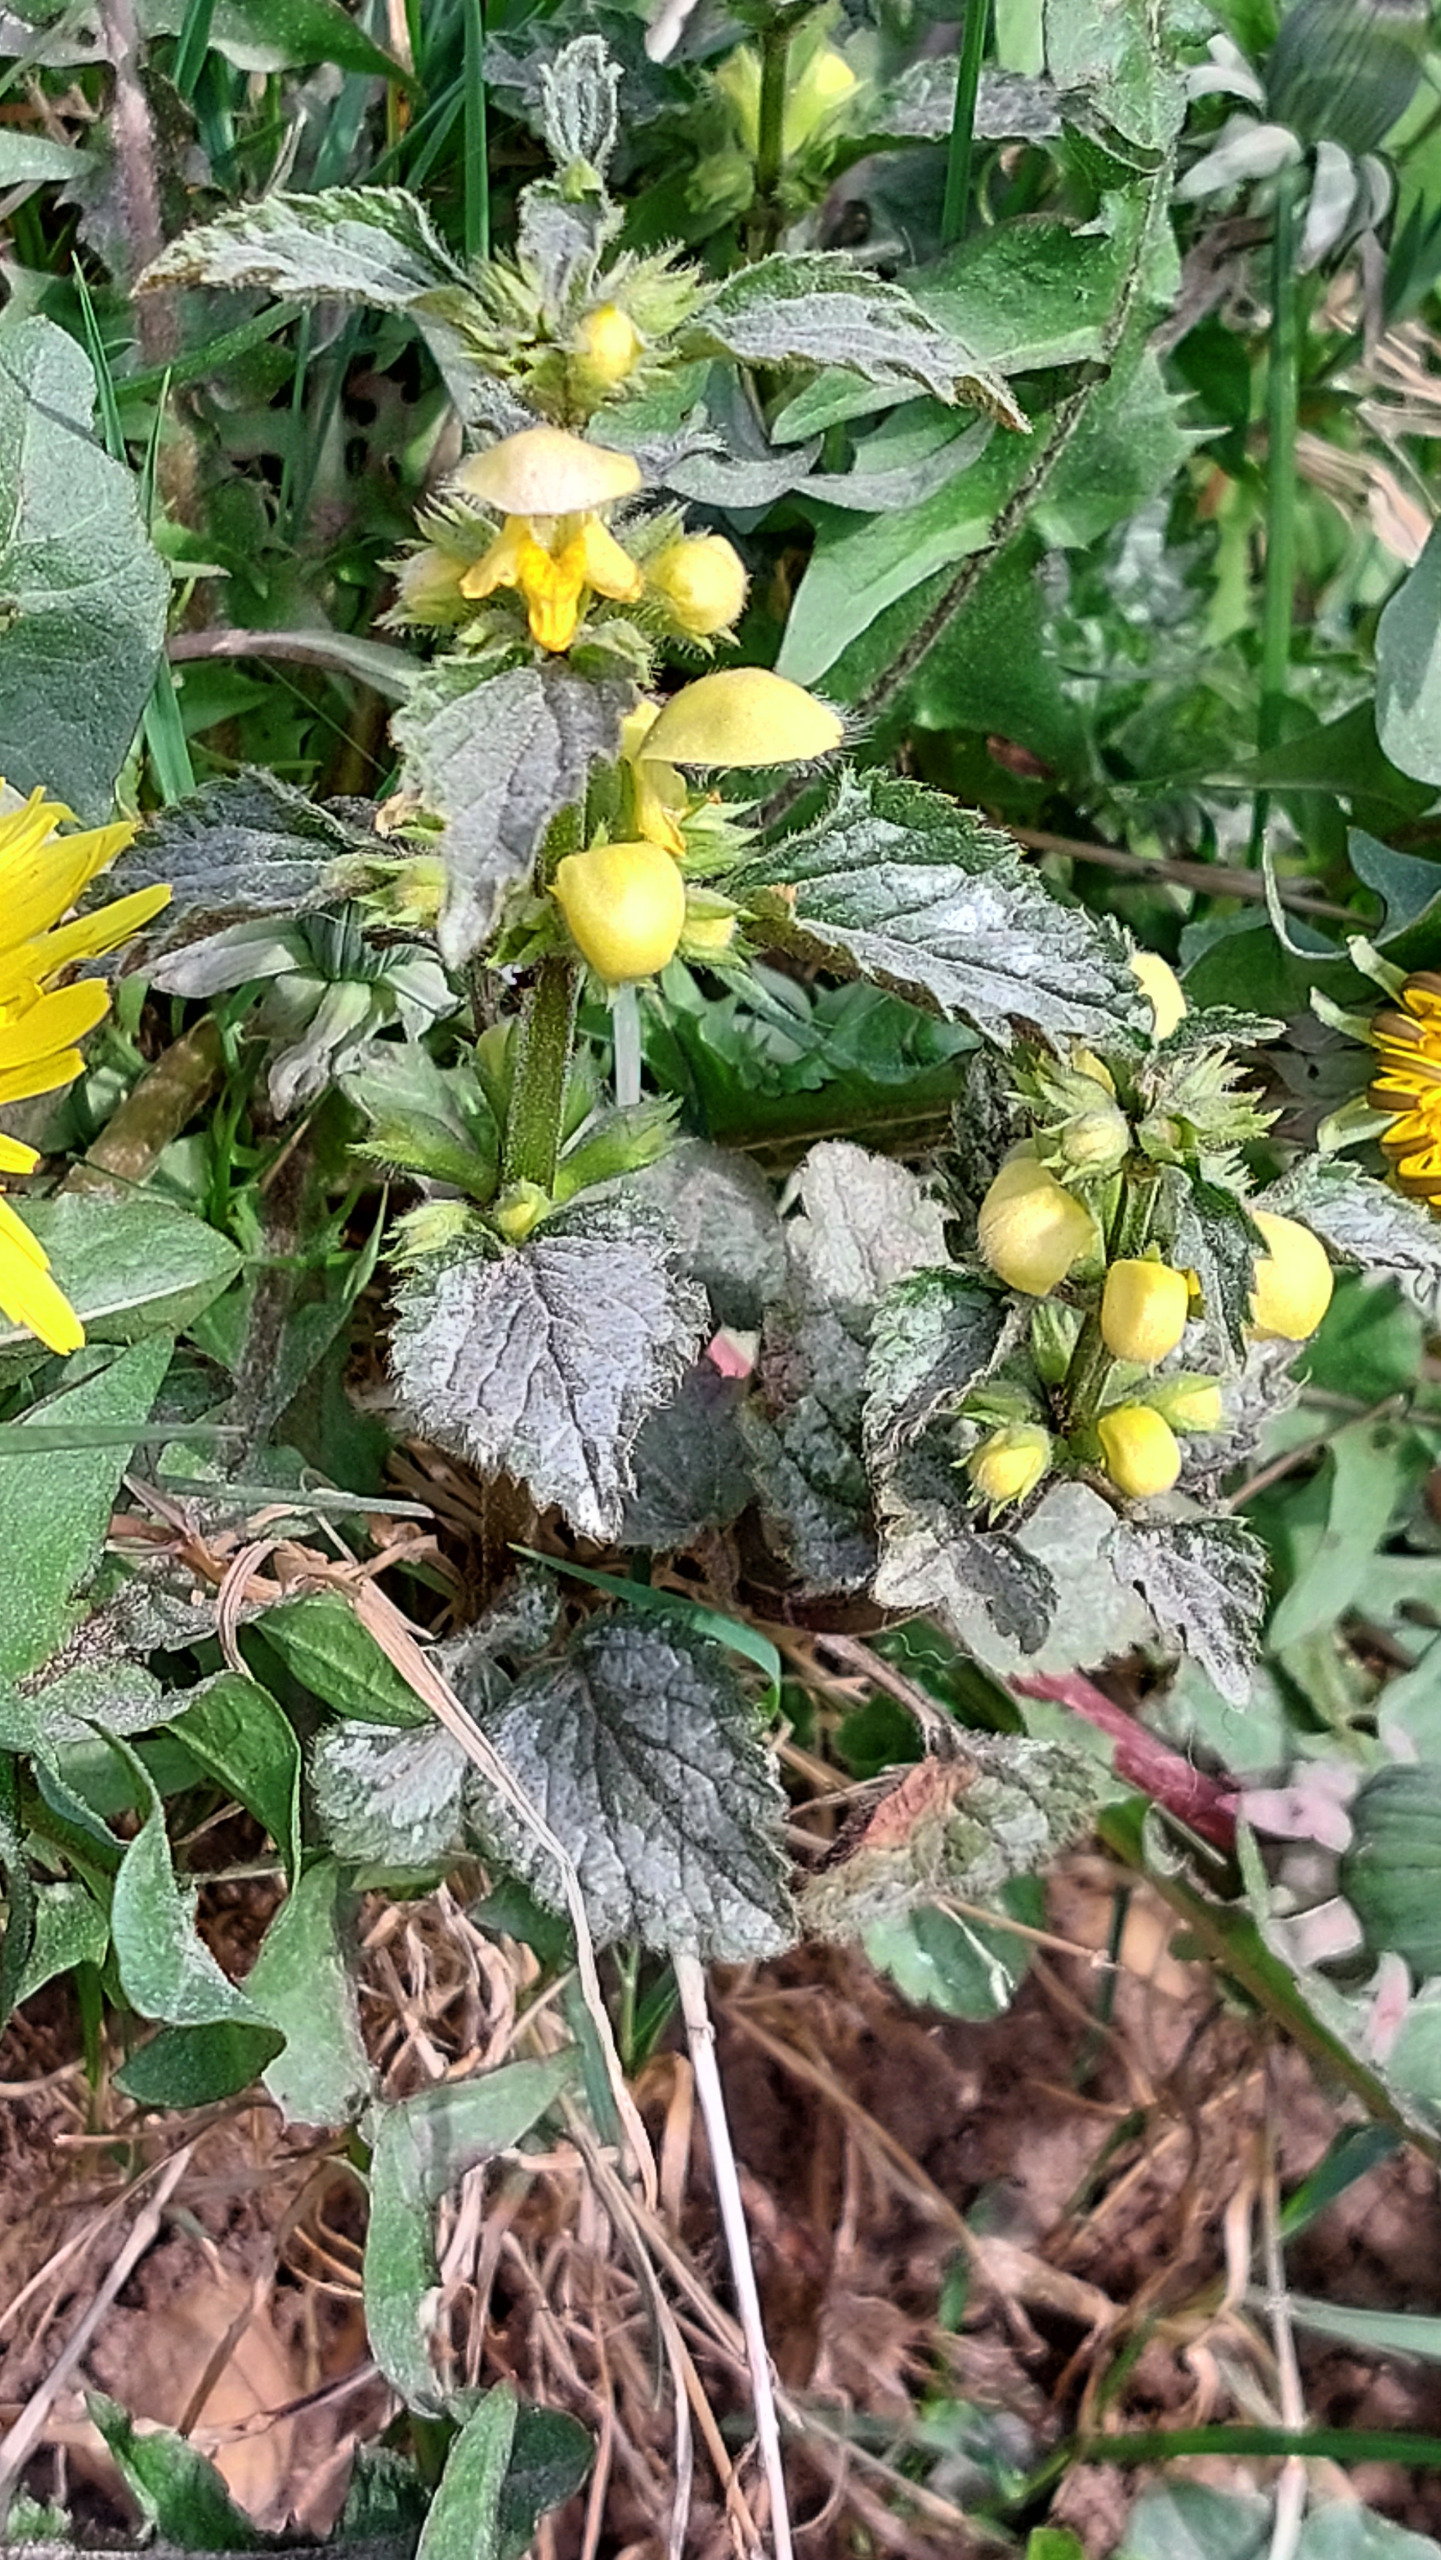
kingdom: Plantae
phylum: Tracheophyta
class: Magnoliopsida
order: Lamiales
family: Lamiaceae
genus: Lamium
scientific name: Lamium galeobdolon
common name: Have-guldnælde
